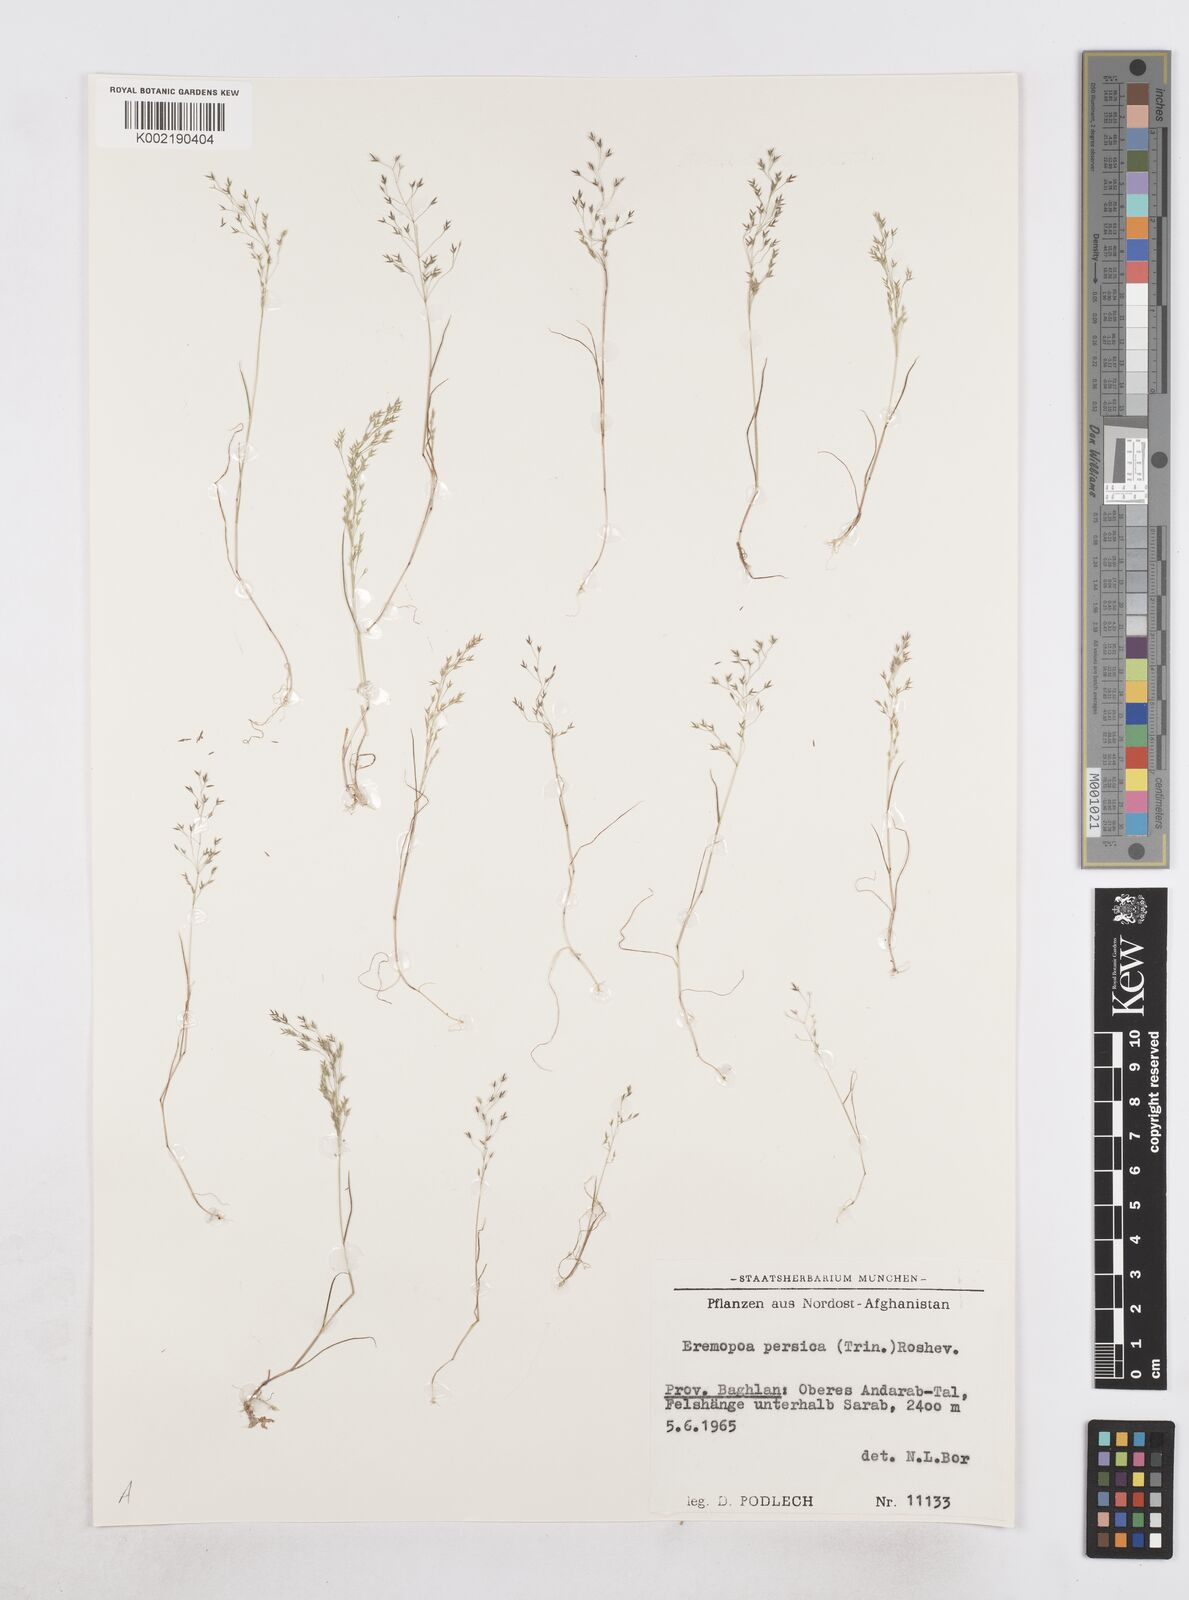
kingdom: Plantae
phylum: Tracheophyta
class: Liliopsida
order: Poales
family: Poaceae
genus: Poa
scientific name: Poa diaphora
